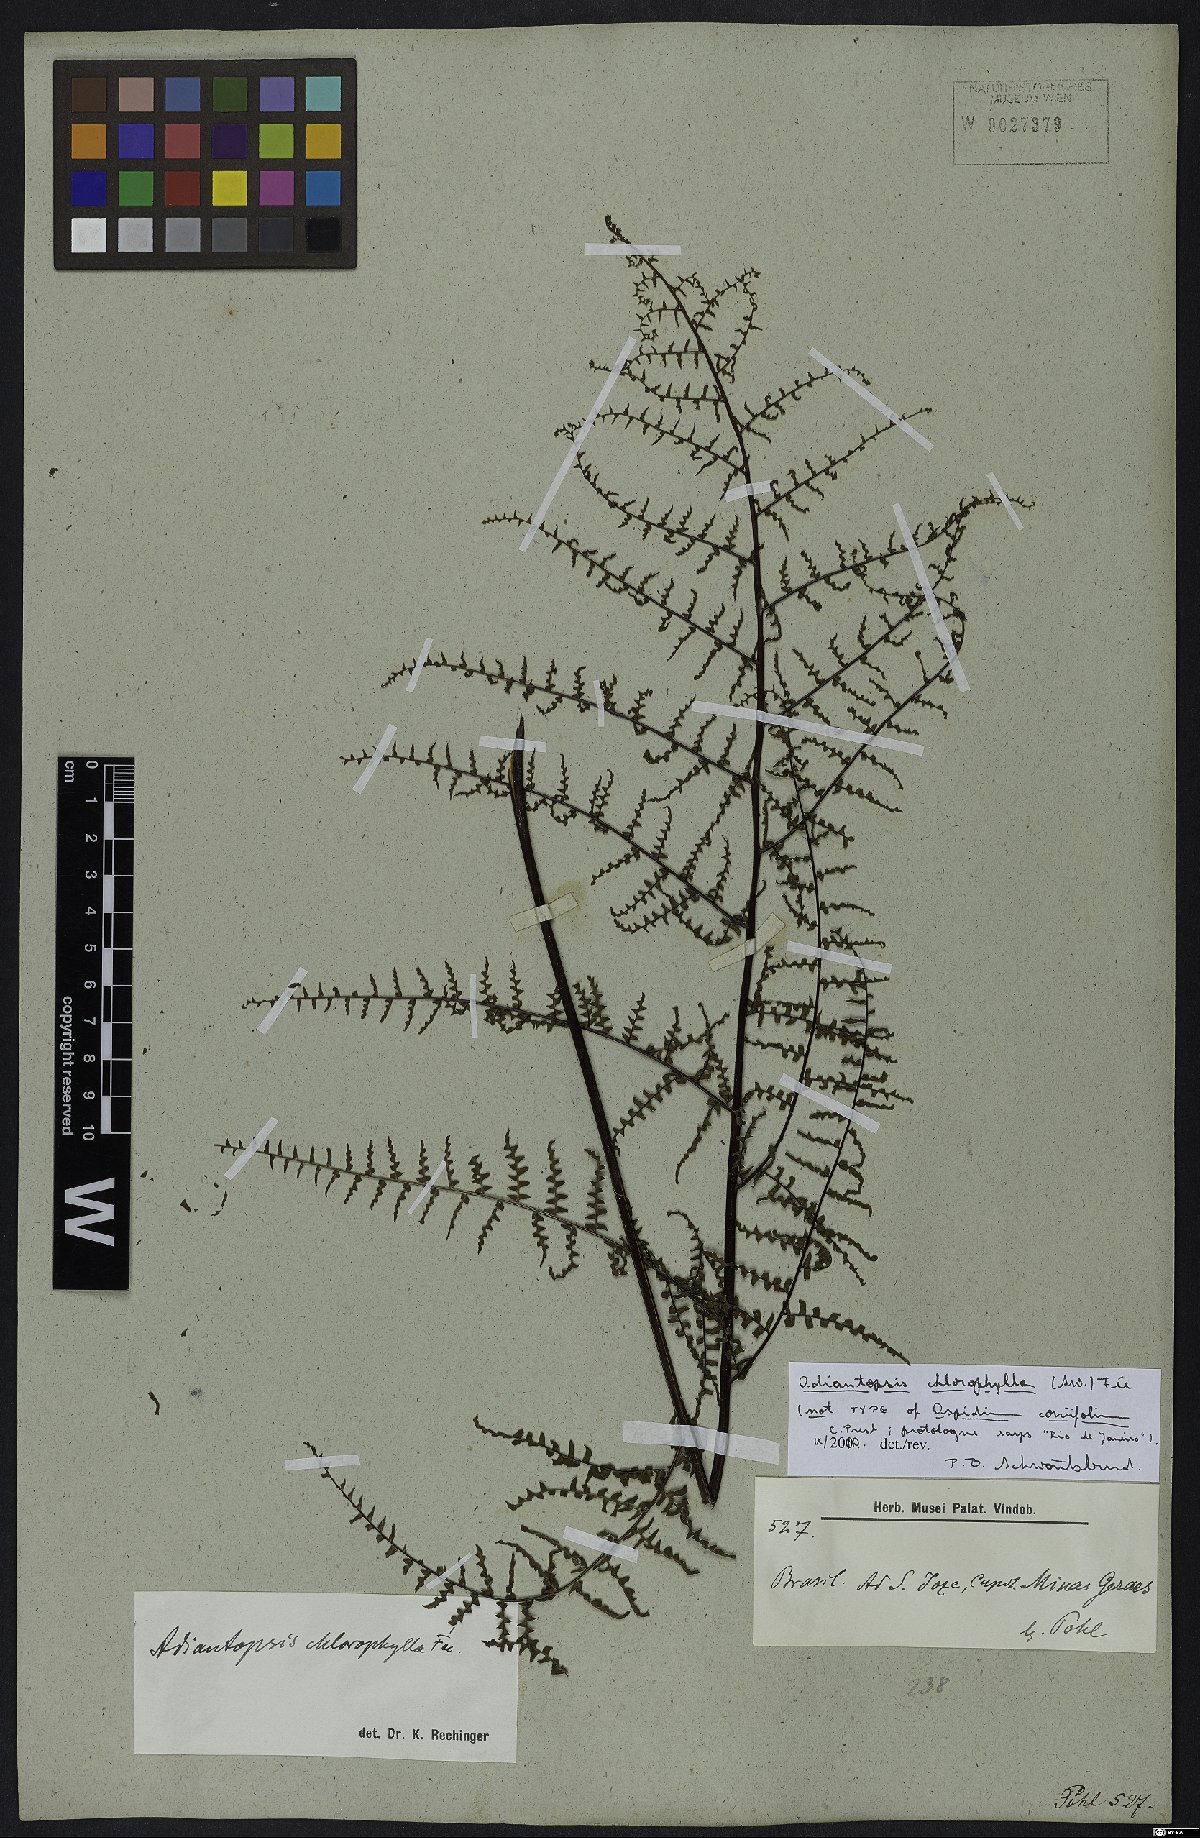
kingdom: Plantae
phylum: Tracheophyta
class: Polypodiopsida
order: Polypodiales
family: Pteridaceae
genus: Adiantopsis
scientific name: Adiantopsis chlorophylla
